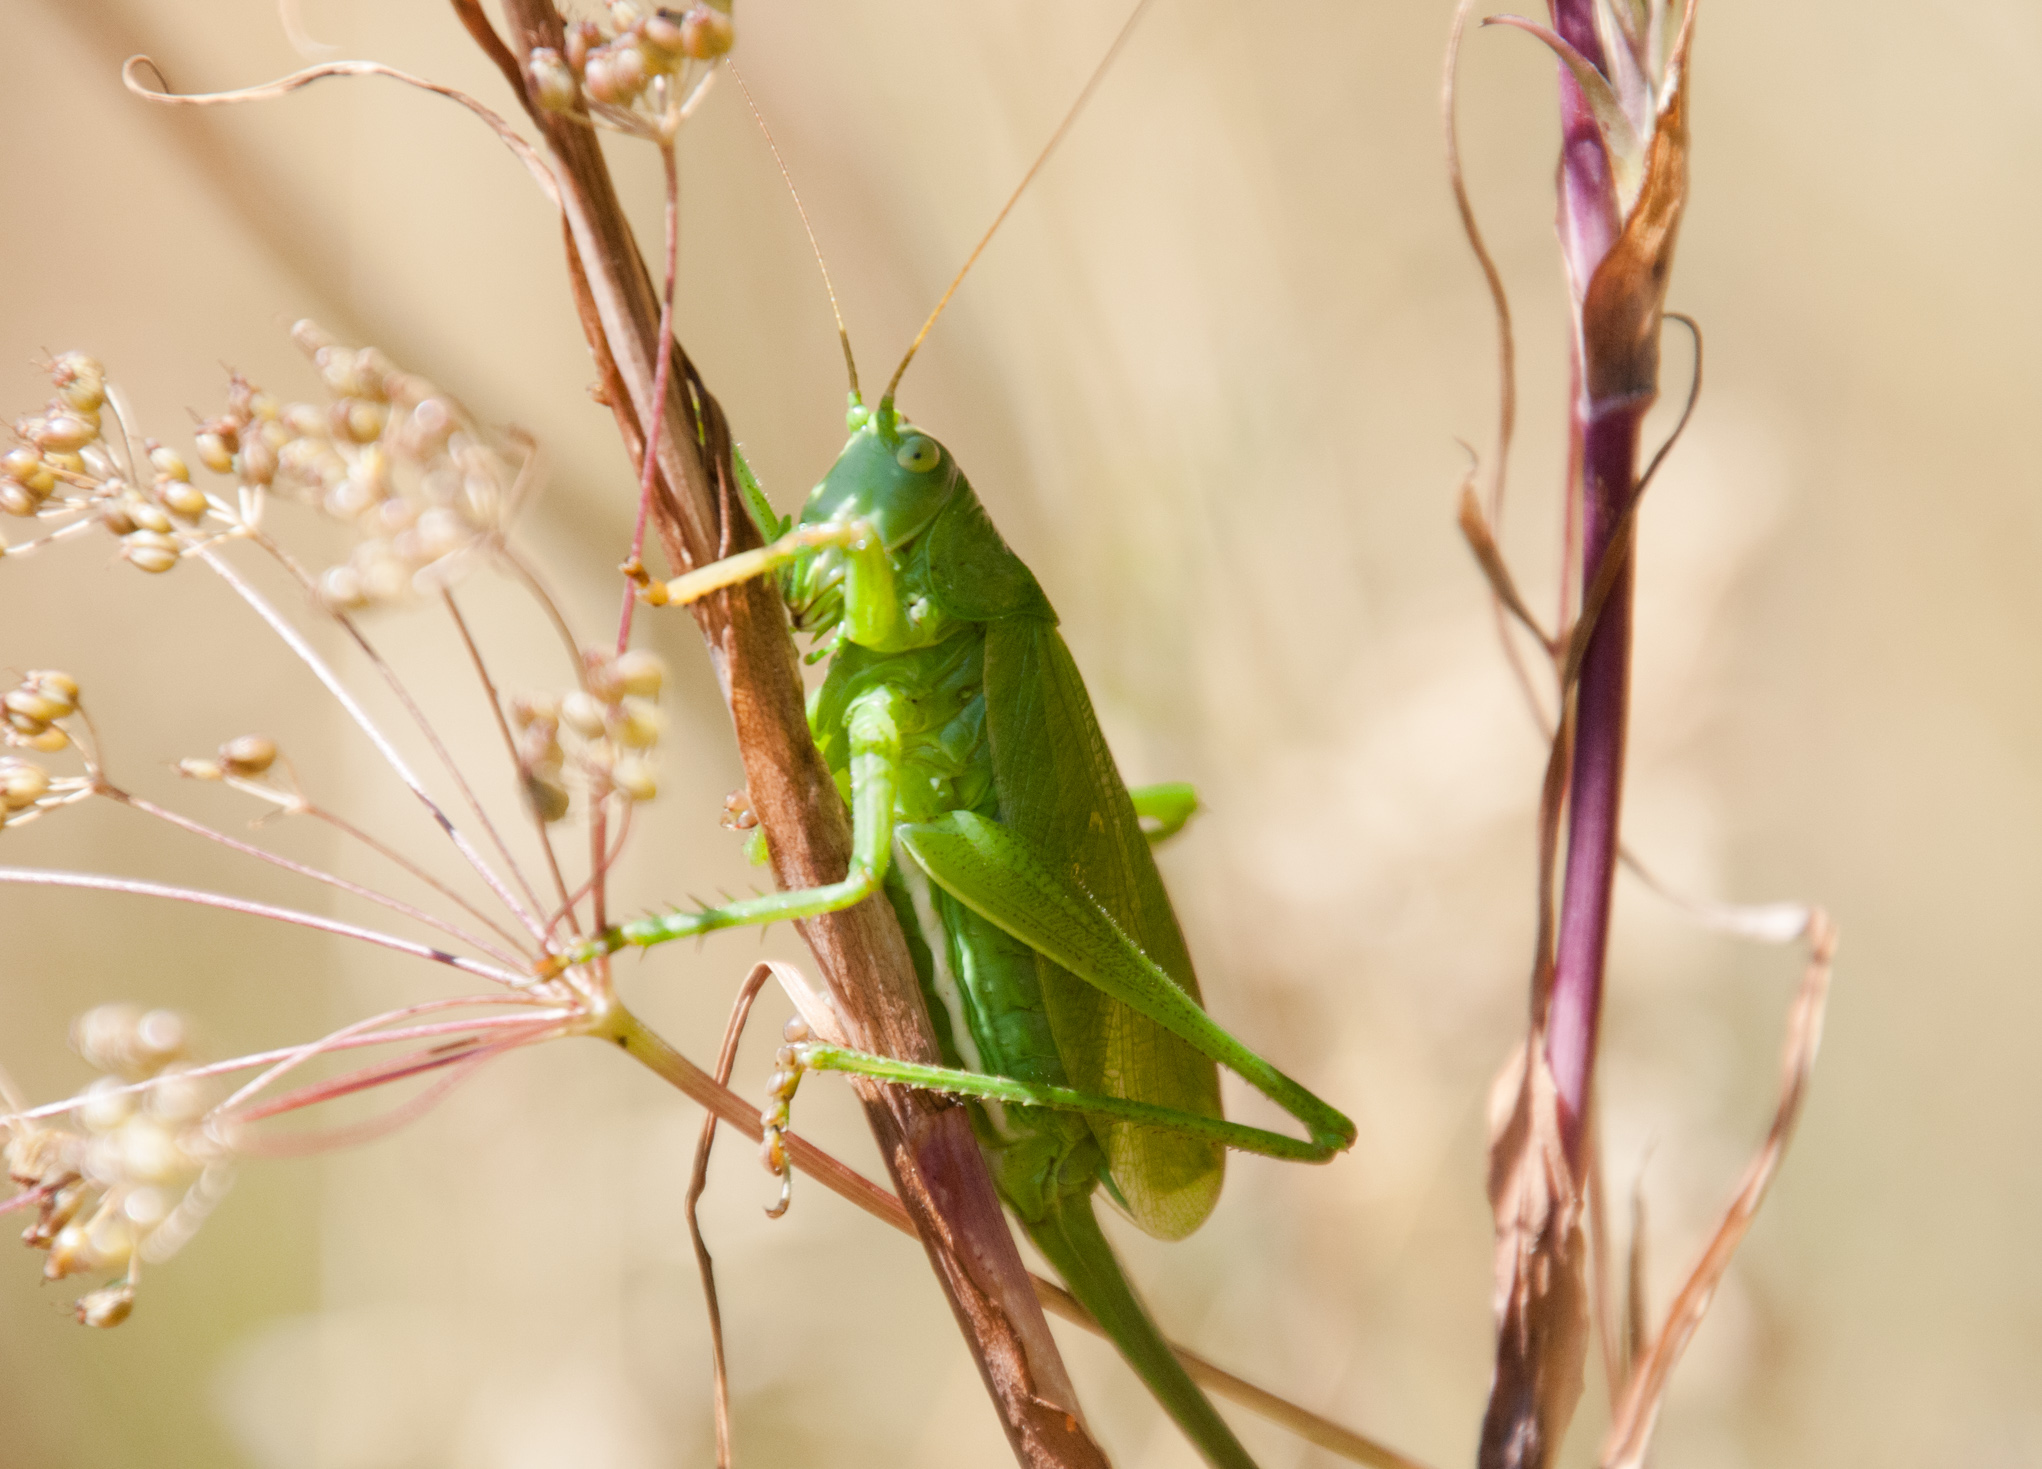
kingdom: Animalia
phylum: Arthropoda
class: Insecta
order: Orthoptera
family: Tettigoniidae
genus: Tettigonia
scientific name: Tettigonia cantans
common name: Upland green bush-cricket
